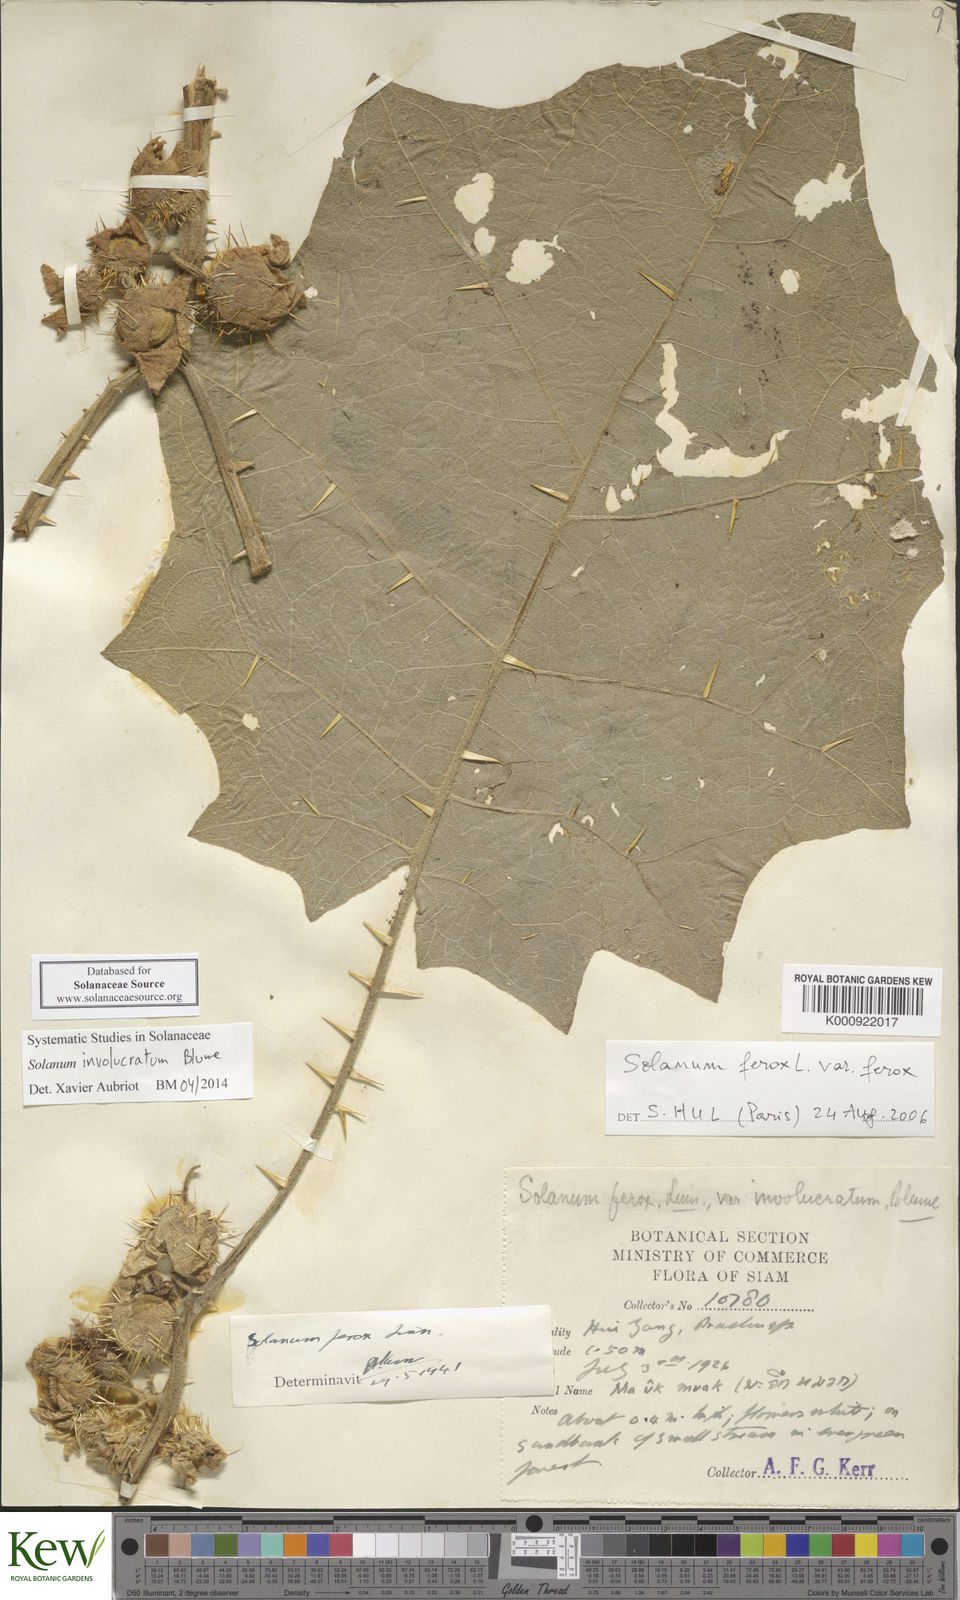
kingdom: Plantae
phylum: Tracheophyta
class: Magnoliopsida
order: Solanales
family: Solanaceae
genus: Solanum
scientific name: Solanum involucratum
